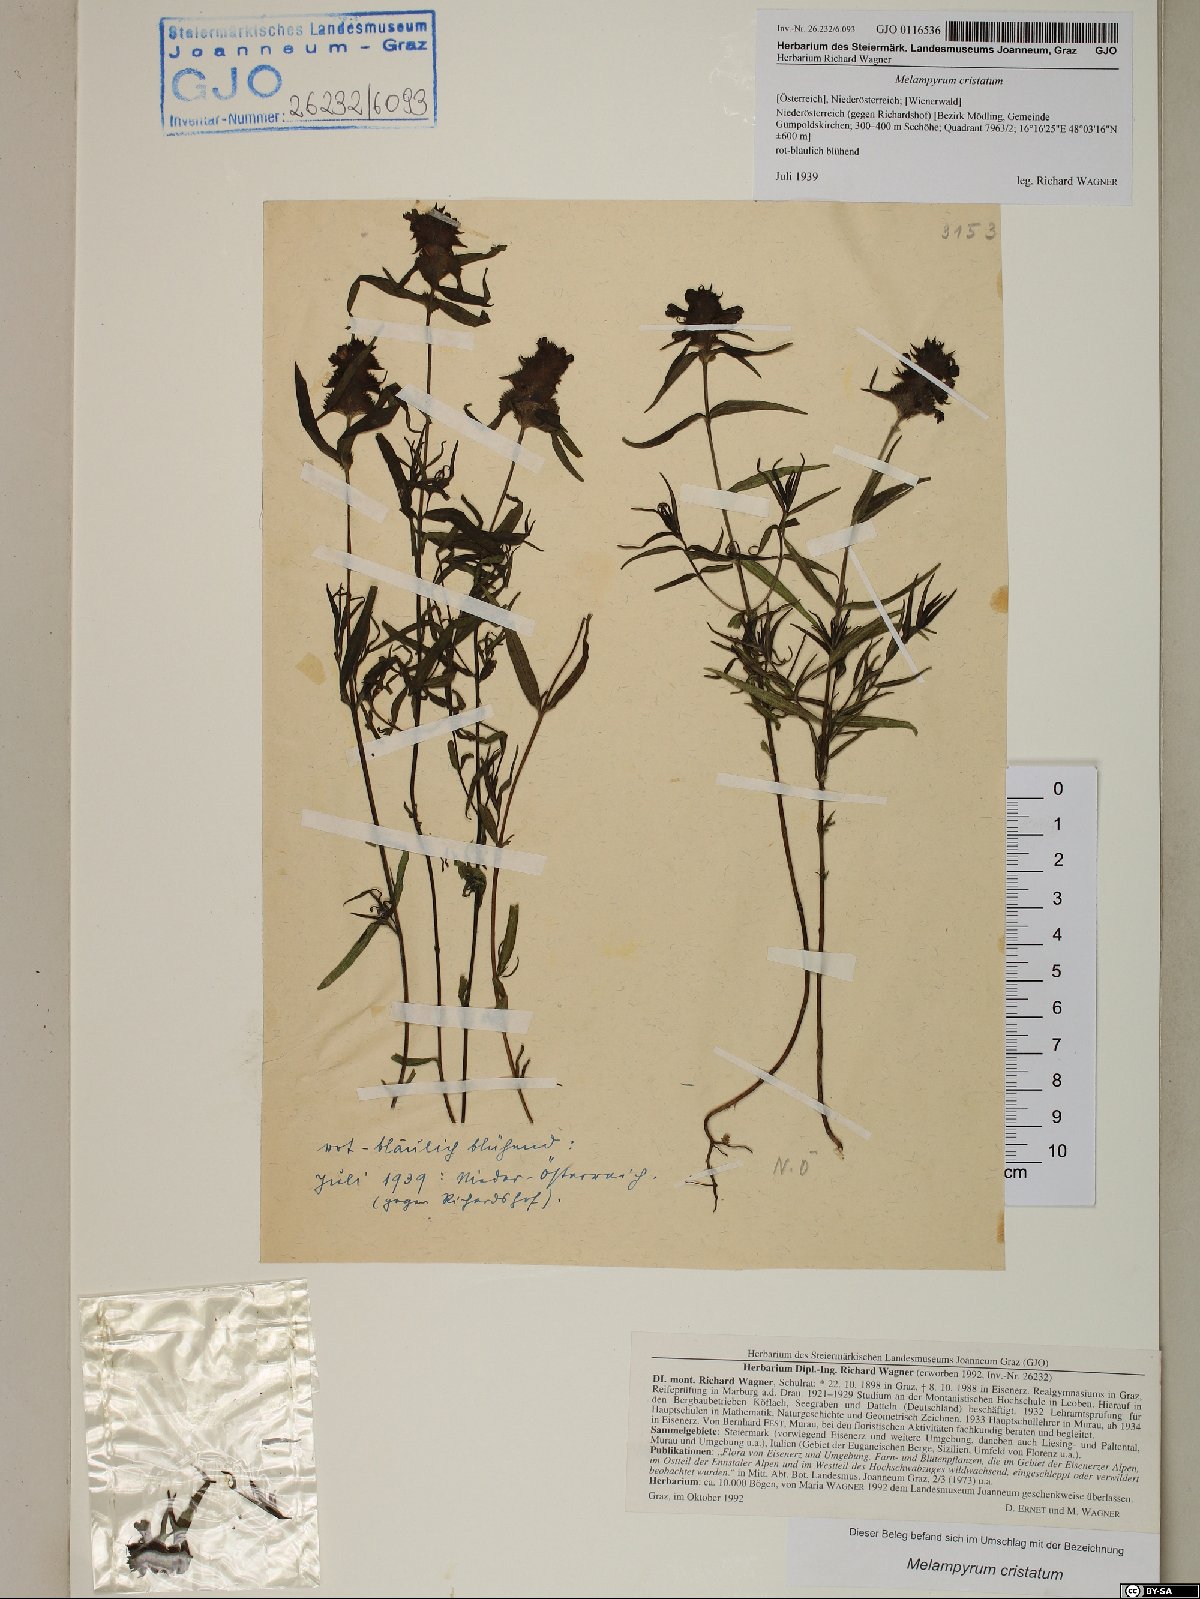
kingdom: Plantae
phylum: Tracheophyta
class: Magnoliopsida
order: Lamiales
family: Orobanchaceae
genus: Melampyrum
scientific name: Melampyrum cristatum
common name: Crested cow-wheat
